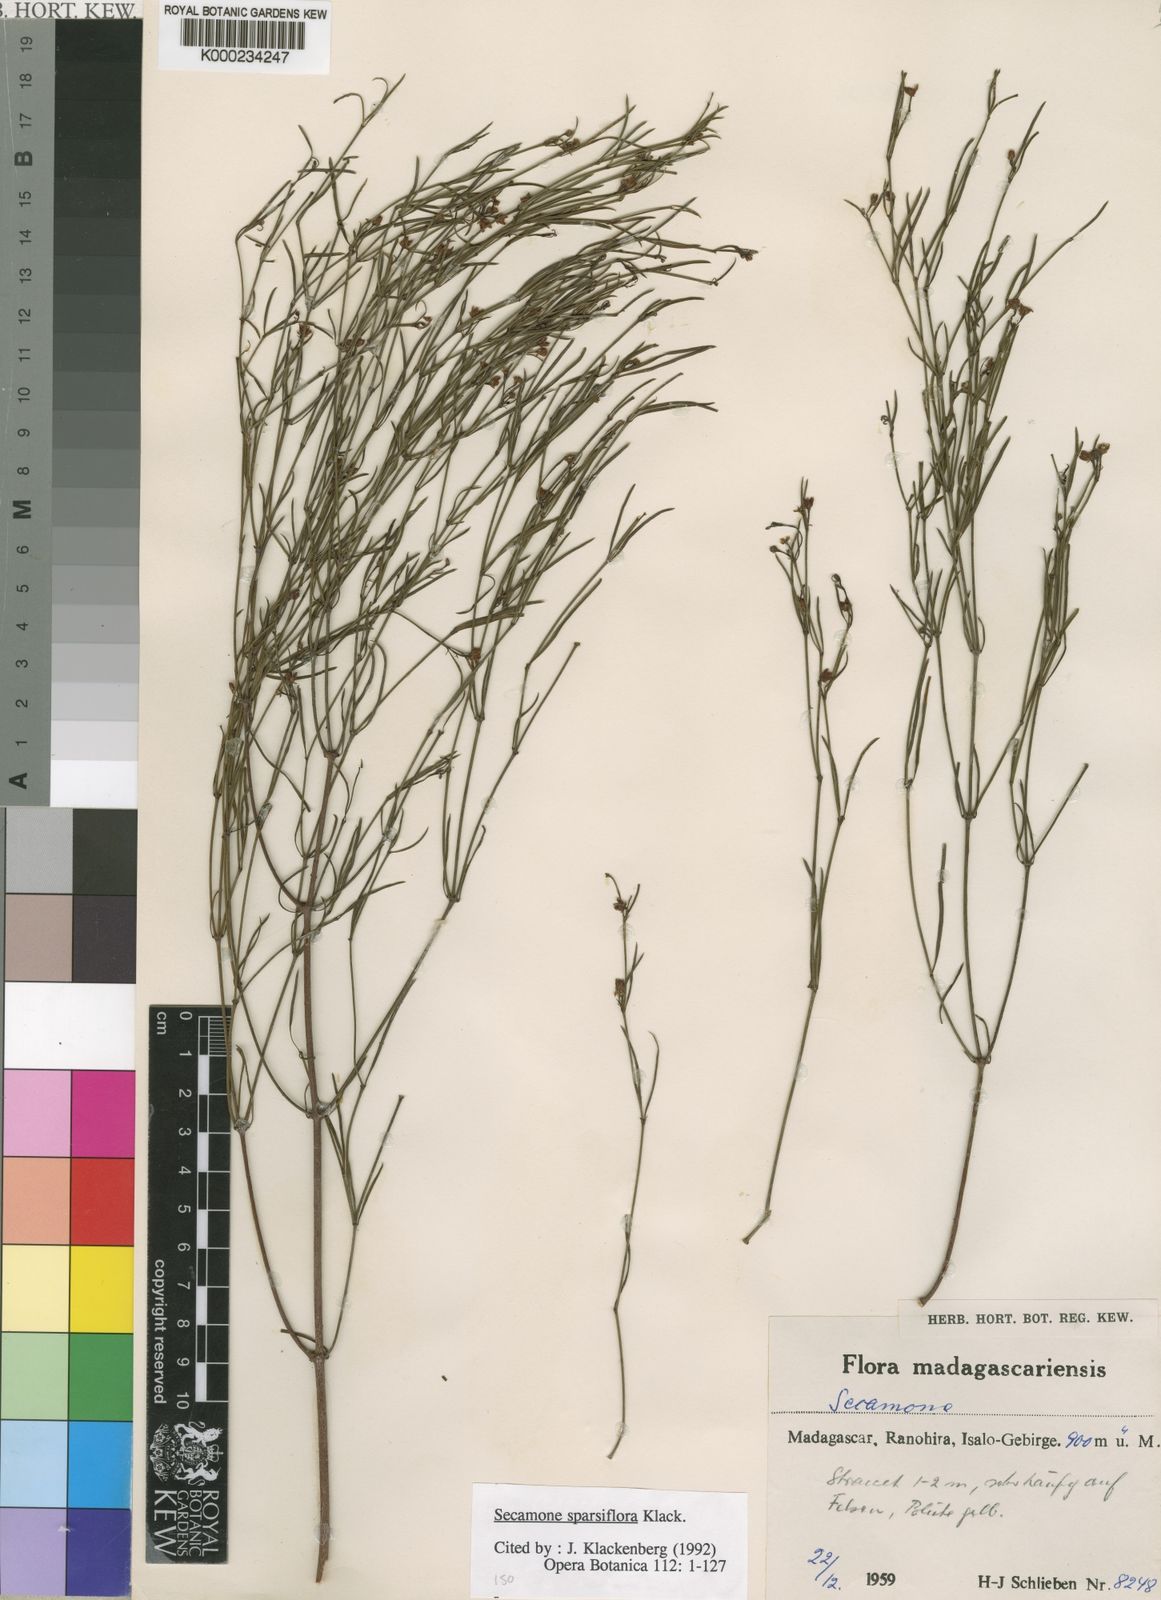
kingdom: Plantae
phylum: Tracheophyta
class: Magnoliopsida
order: Gentianales
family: Apocynaceae
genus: Secamone
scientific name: Secamone sparsiflora
